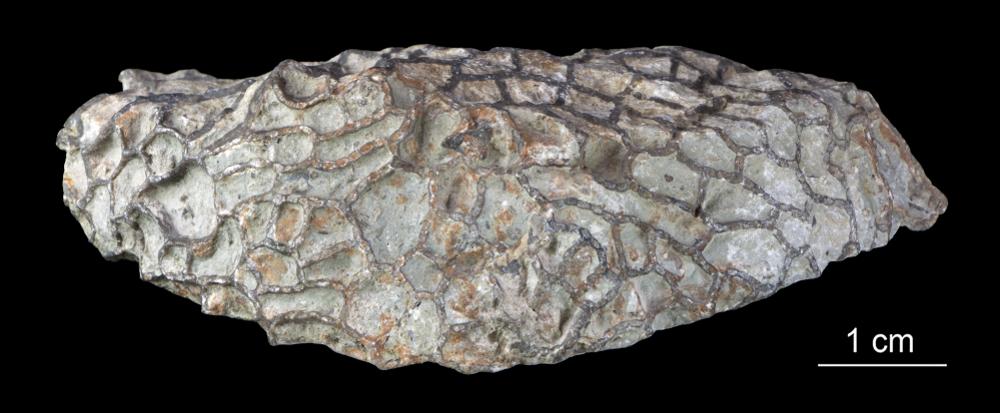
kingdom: Animalia
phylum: Cnidaria
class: Anthozoa
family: Halysitidae
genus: Halysites
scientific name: Halysites
